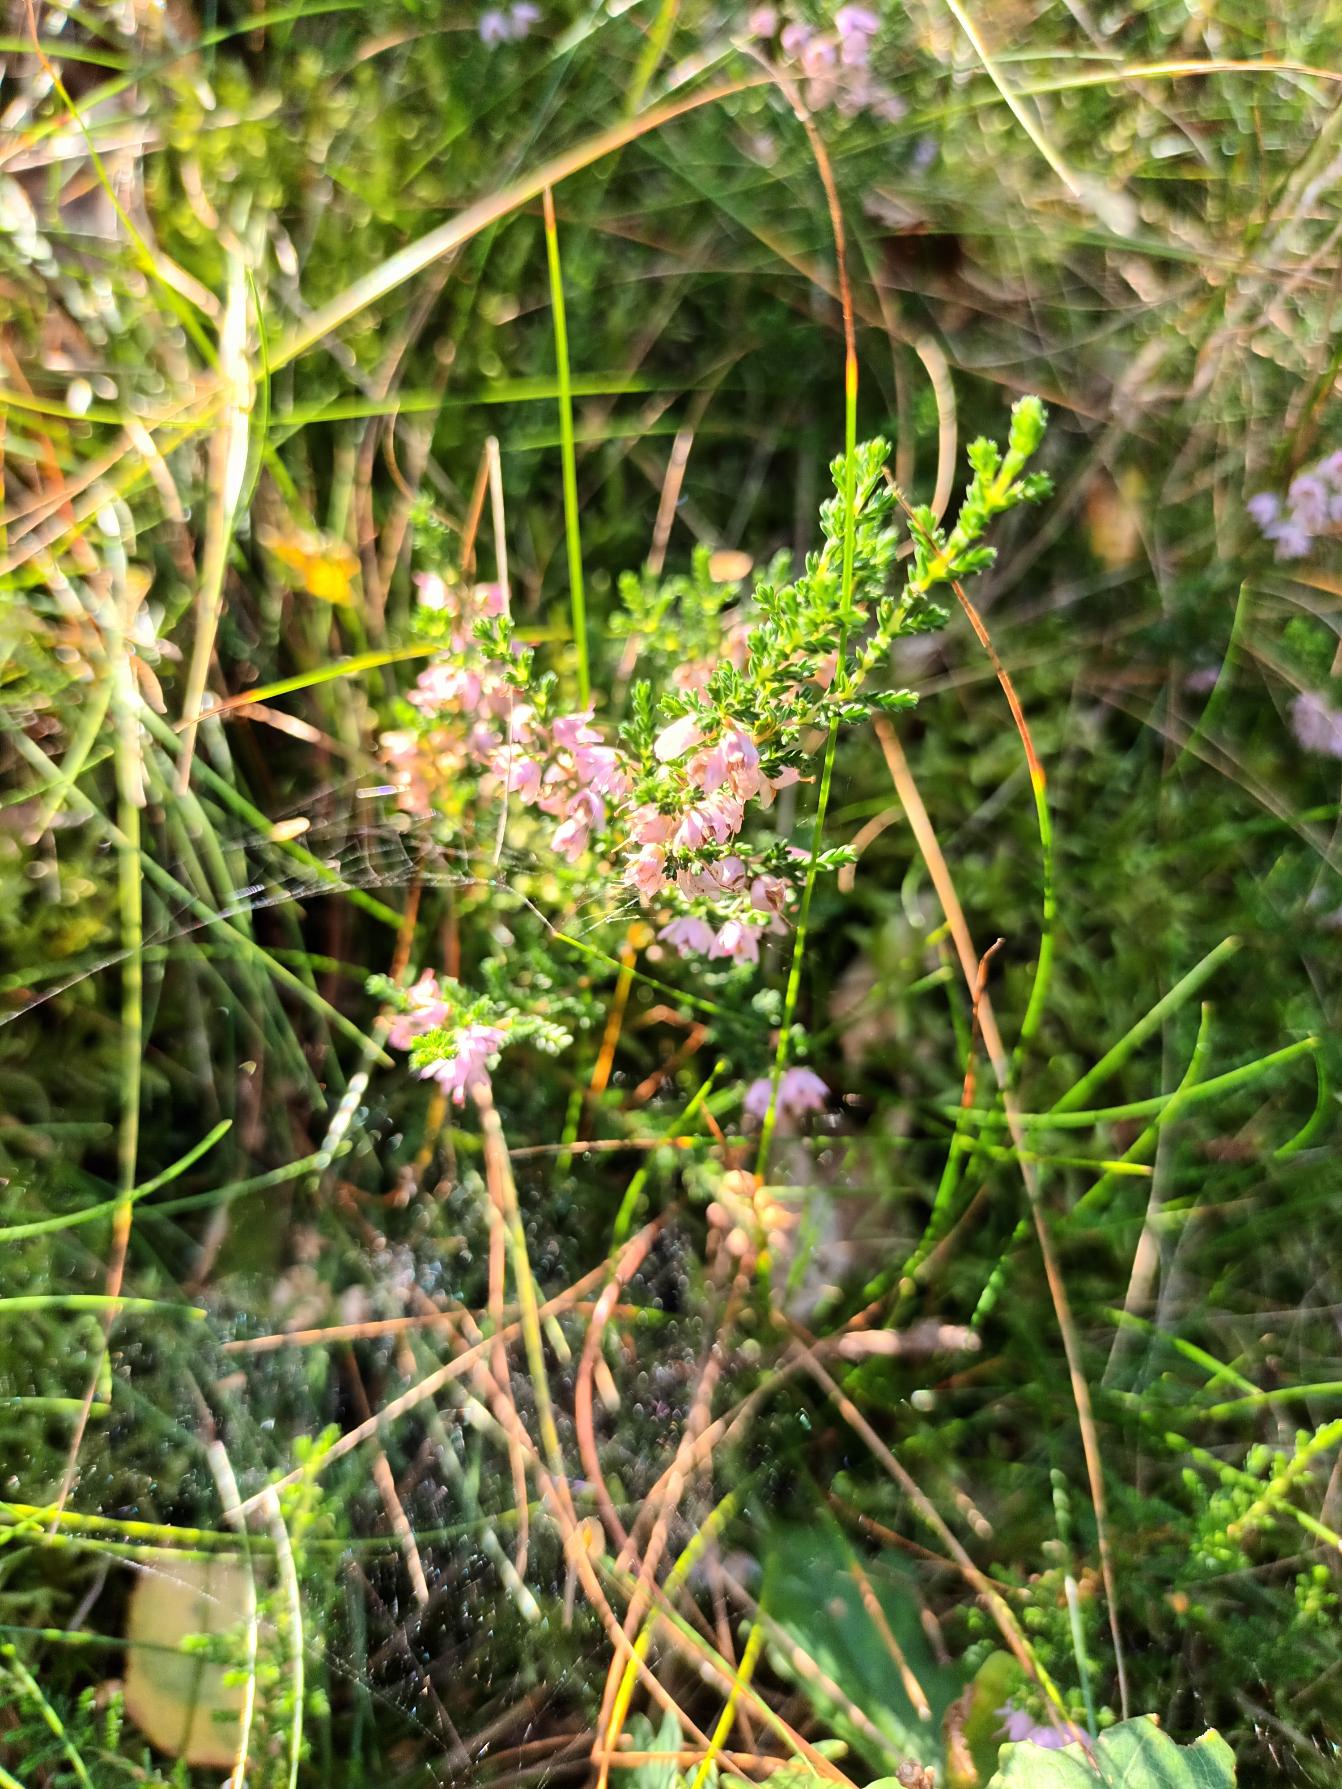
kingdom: Plantae
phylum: Tracheophyta
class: Magnoliopsida
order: Ericales
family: Ericaceae
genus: Calluna
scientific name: Calluna vulgaris
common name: Hedelyng
